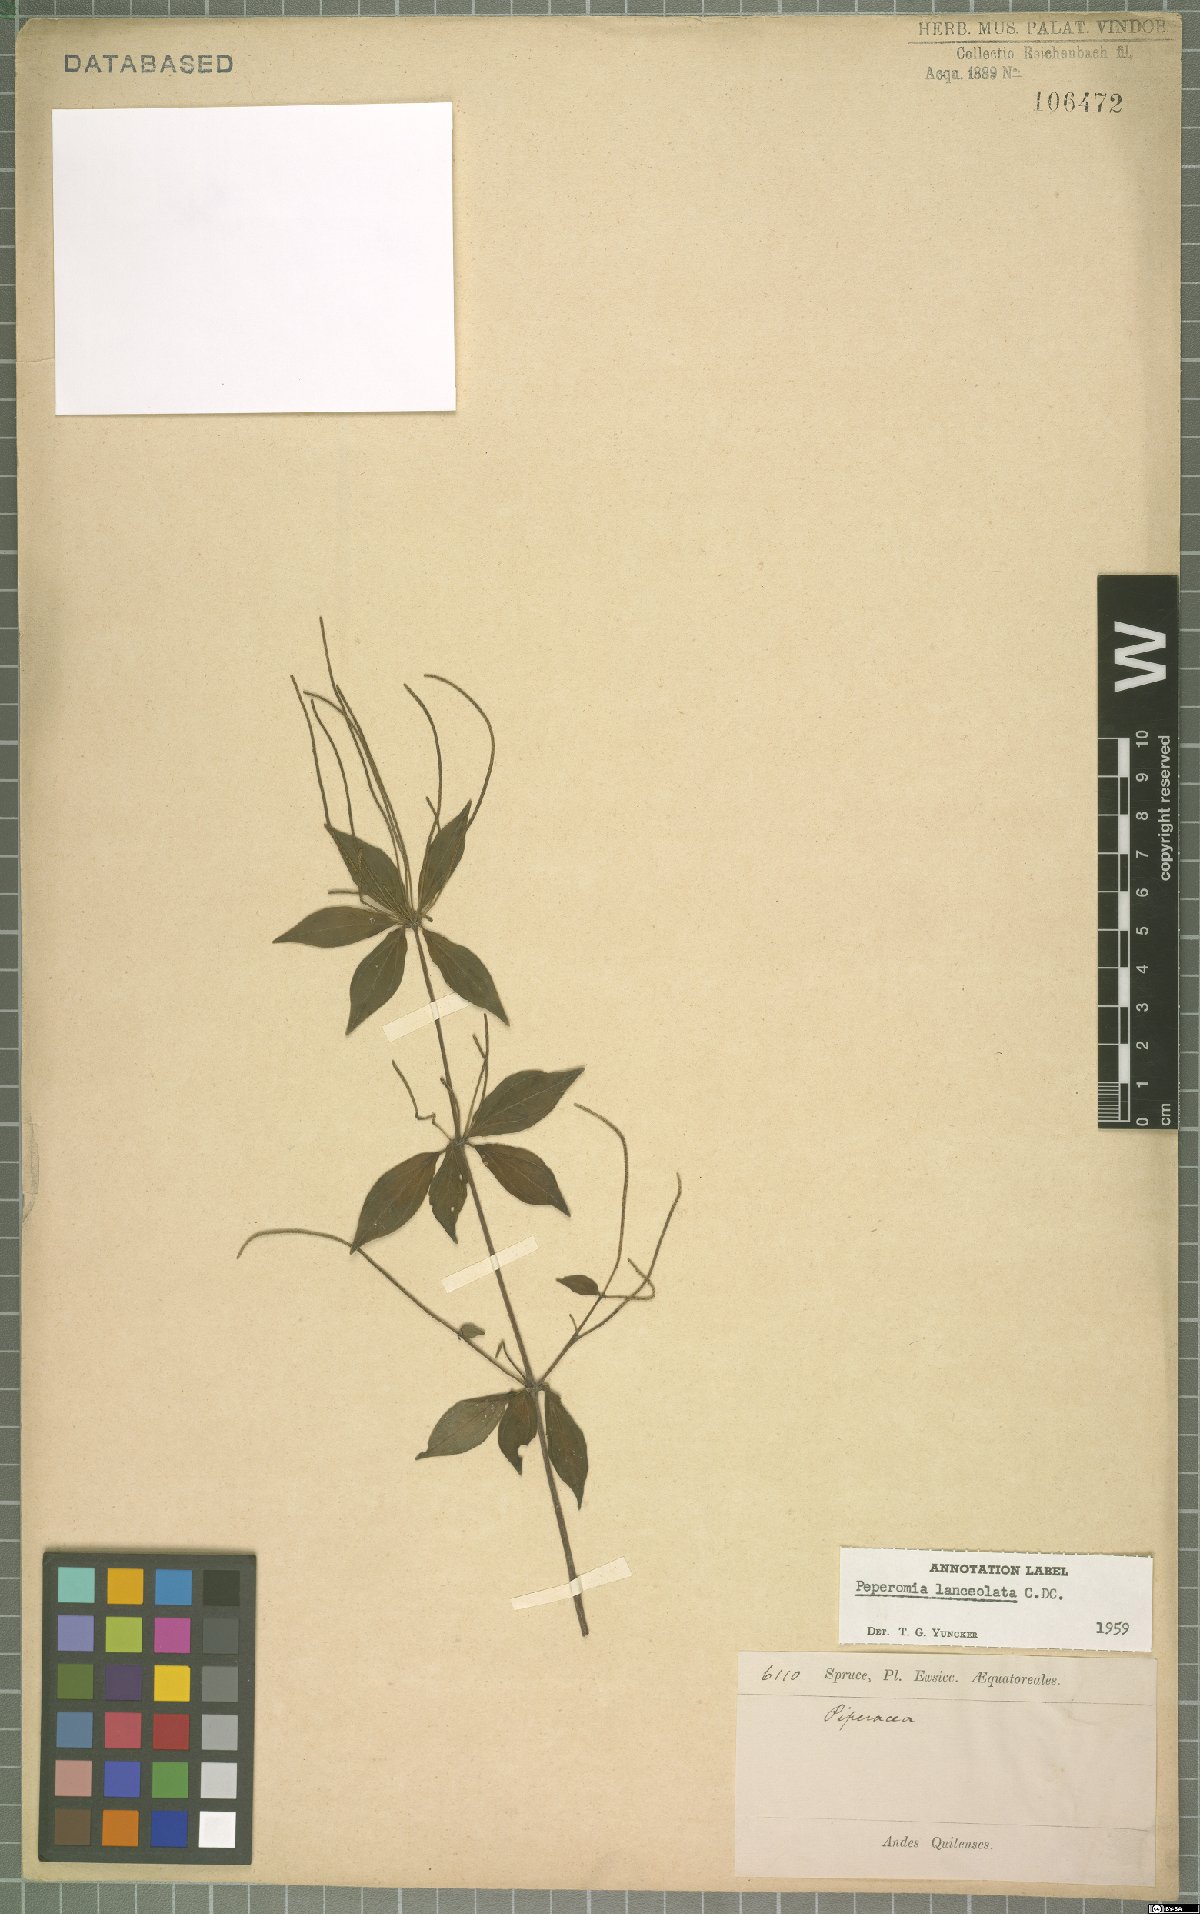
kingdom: Plantae
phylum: Tracheophyta
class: Magnoliopsida
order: Piperales
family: Piperaceae
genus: Peperomia
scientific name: Peperomia lanceolata
